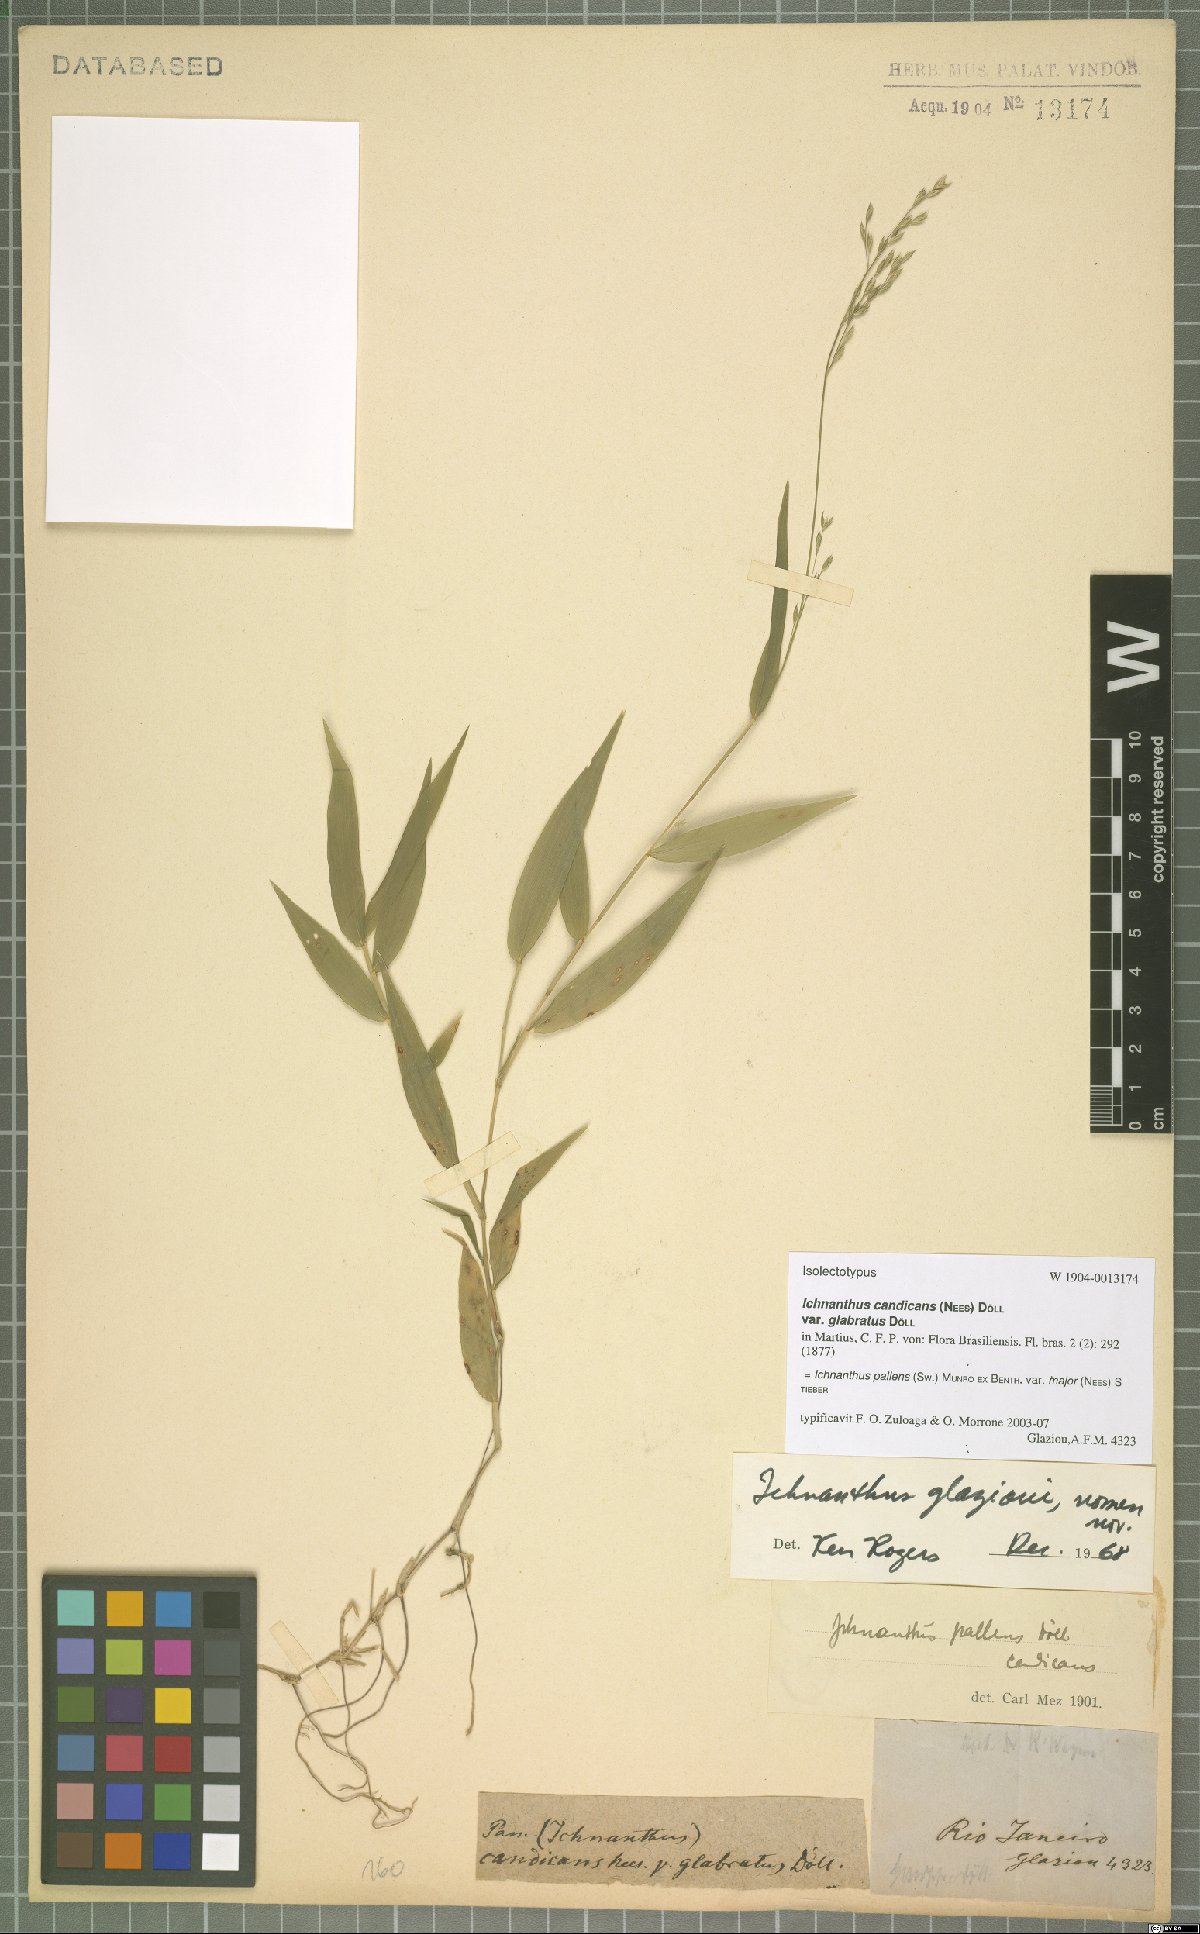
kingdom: Plantae
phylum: Tracheophyta
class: Liliopsida
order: Poales
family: Poaceae
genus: Ichnanthus
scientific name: Ichnanthus pallens
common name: Water grass
